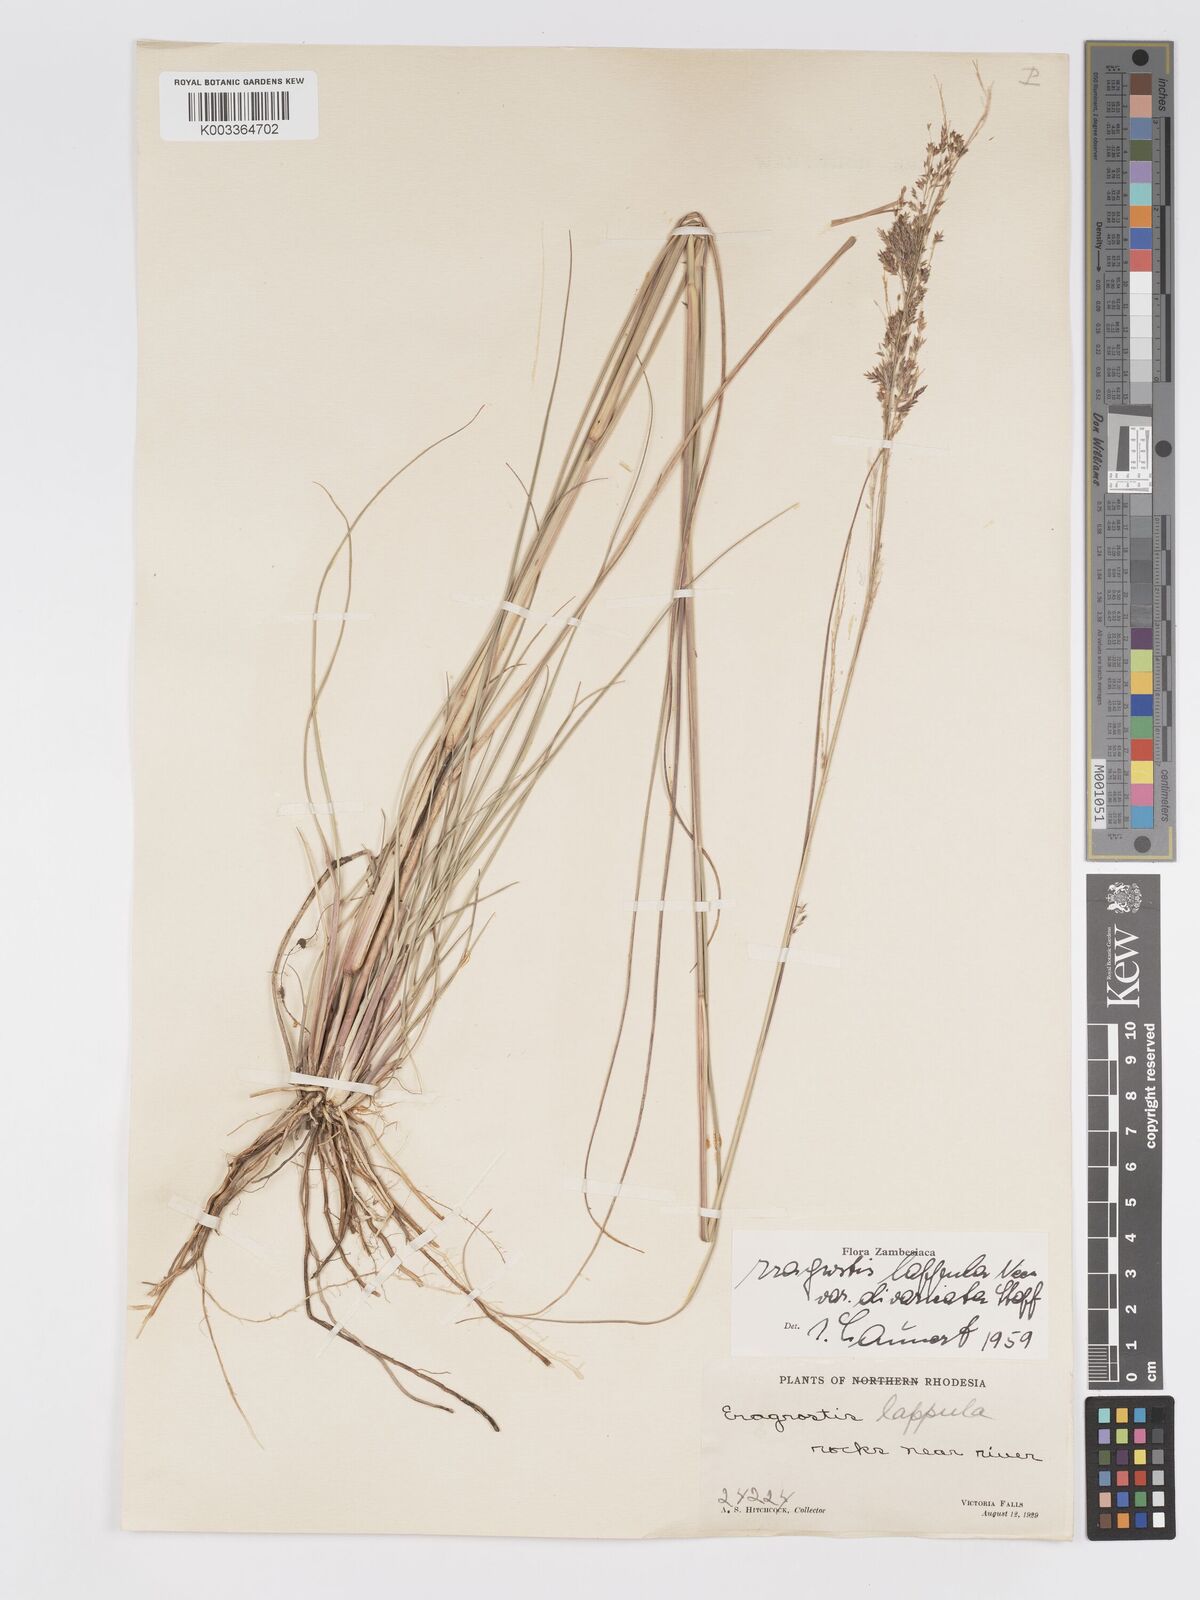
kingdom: Plantae
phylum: Tracheophyta
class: Liliopsida
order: Poales
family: Poaceae
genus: Eragrostis
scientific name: Eragrostis lappula
